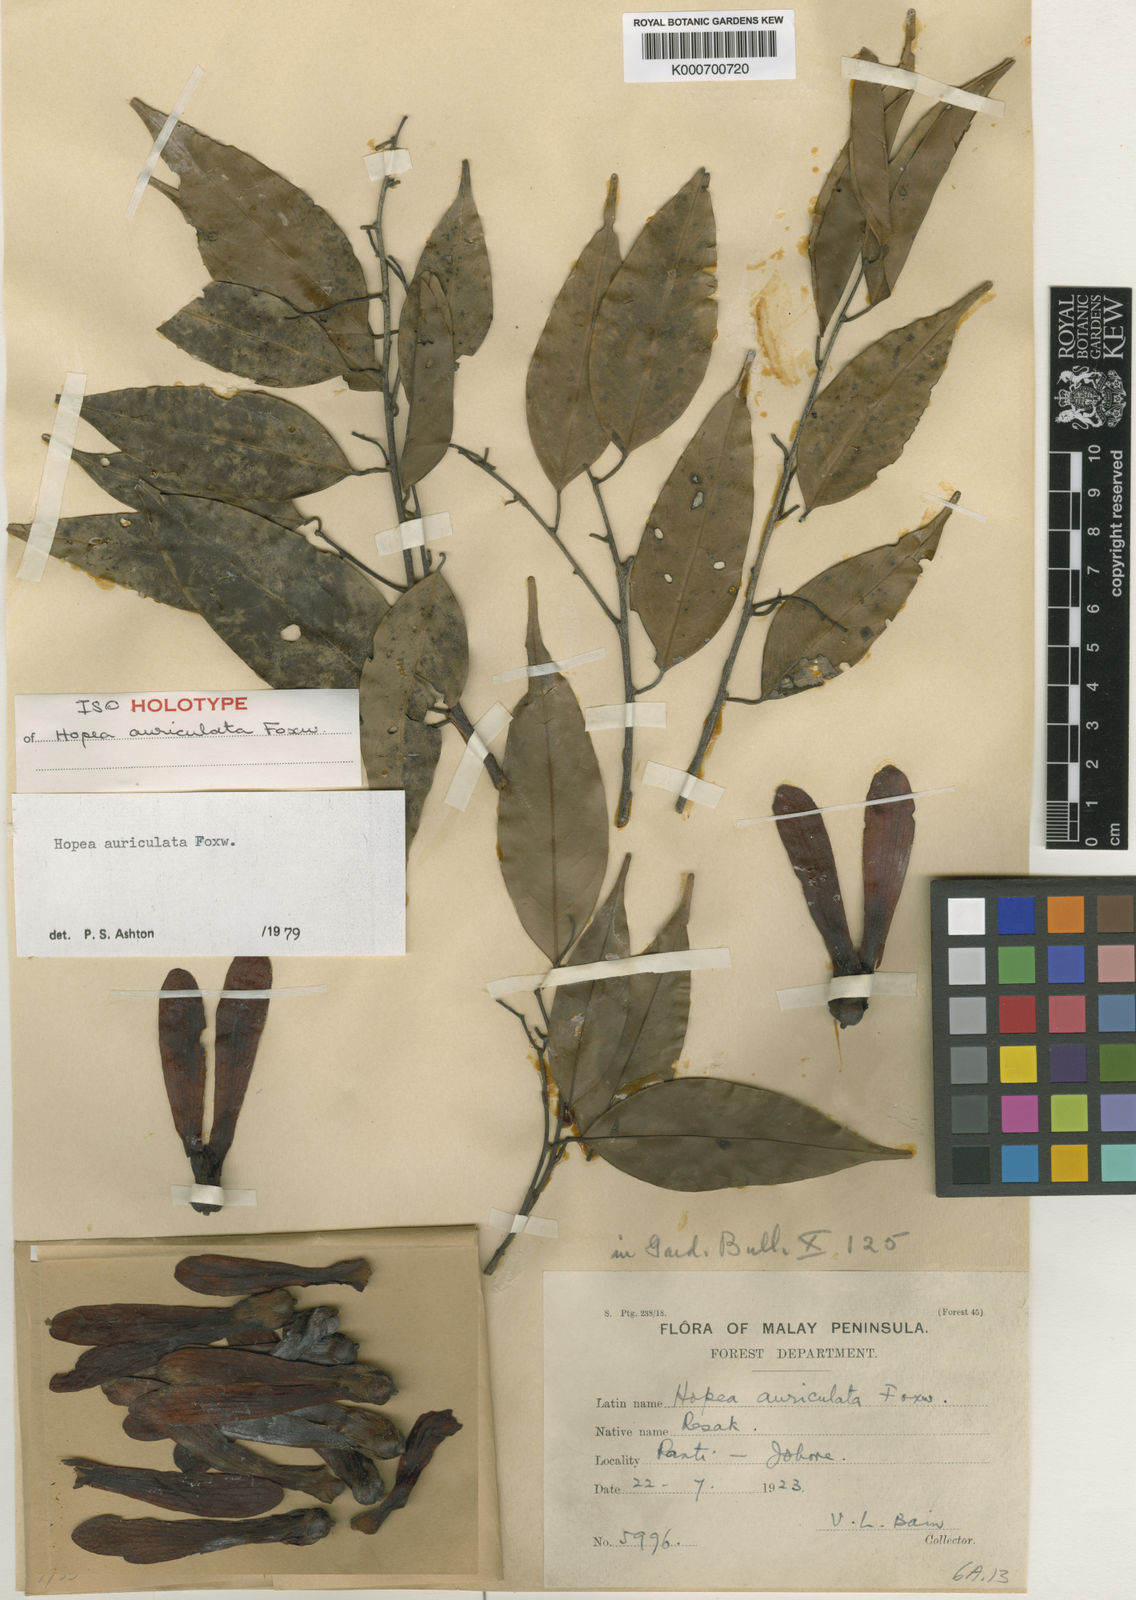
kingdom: Plantae
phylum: Tracheophyta
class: Magnoliopsida
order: Malvales
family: Dipterocarpaceae
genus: Hopea
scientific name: Hopea auriculata
